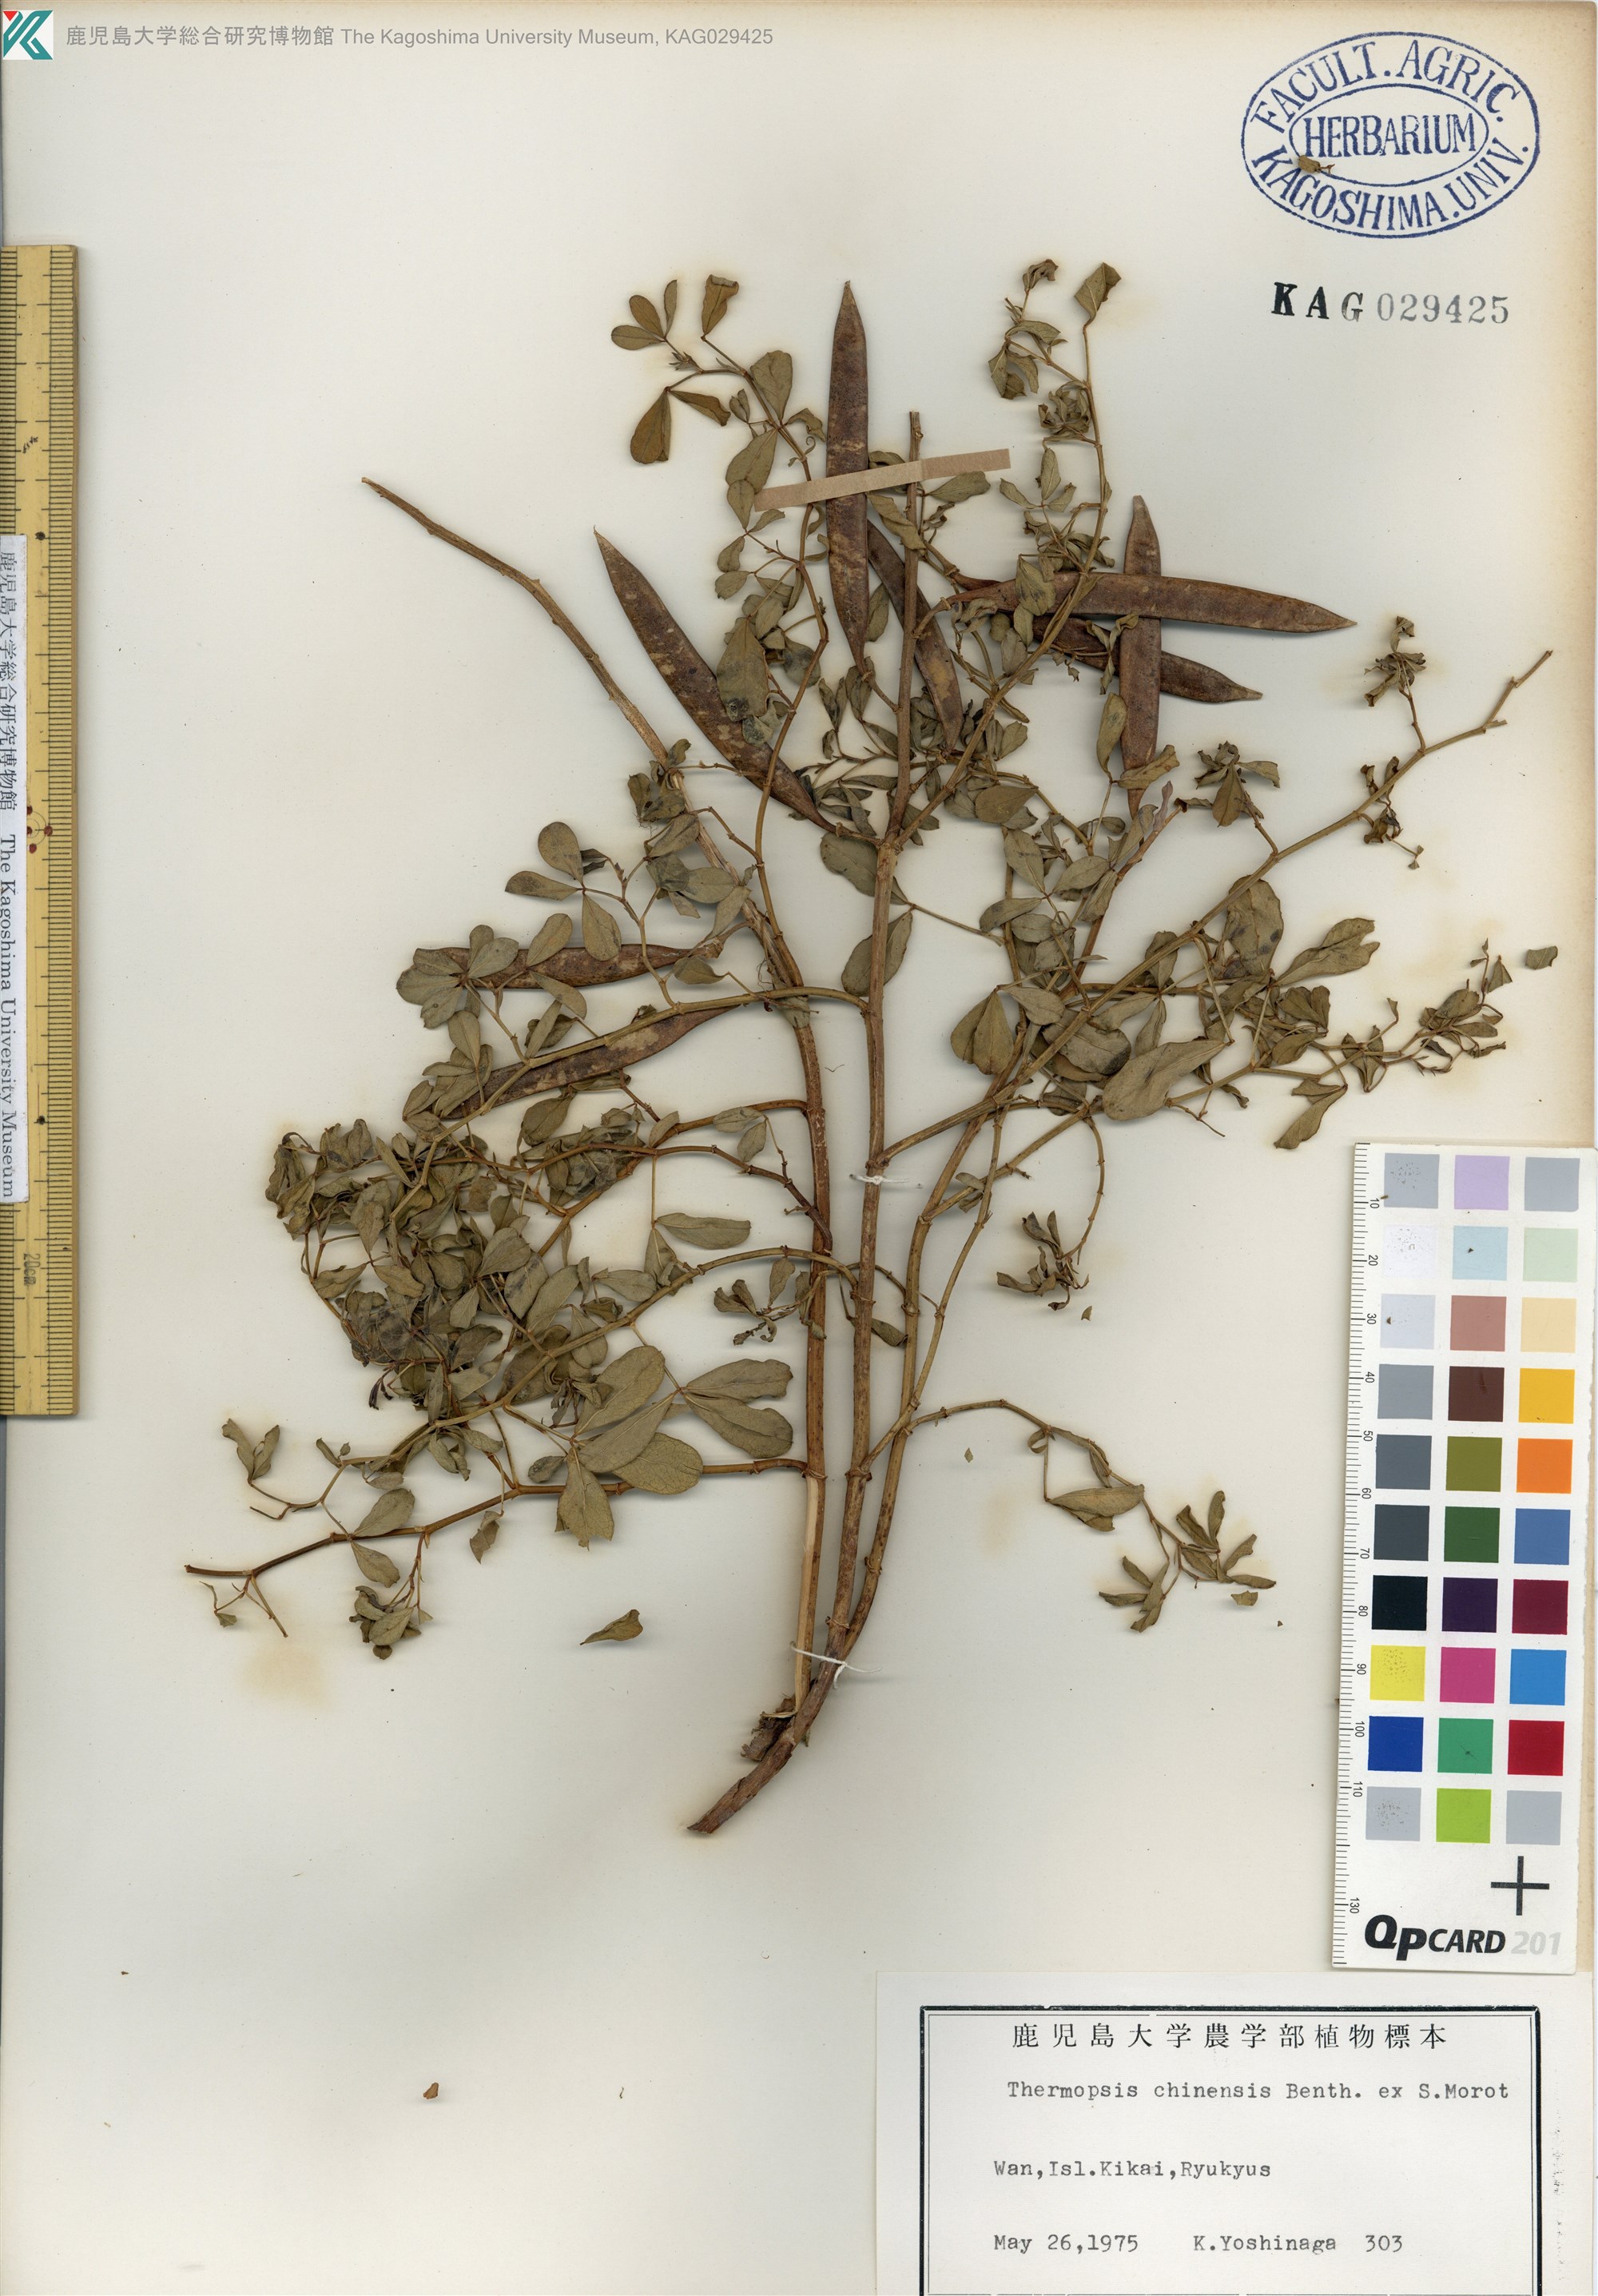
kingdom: Plantae
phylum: Tracheophyta
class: Magnoliopsida
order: Fabales
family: Fabaceae
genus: Thermopsis
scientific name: Thermopsis chinensis
